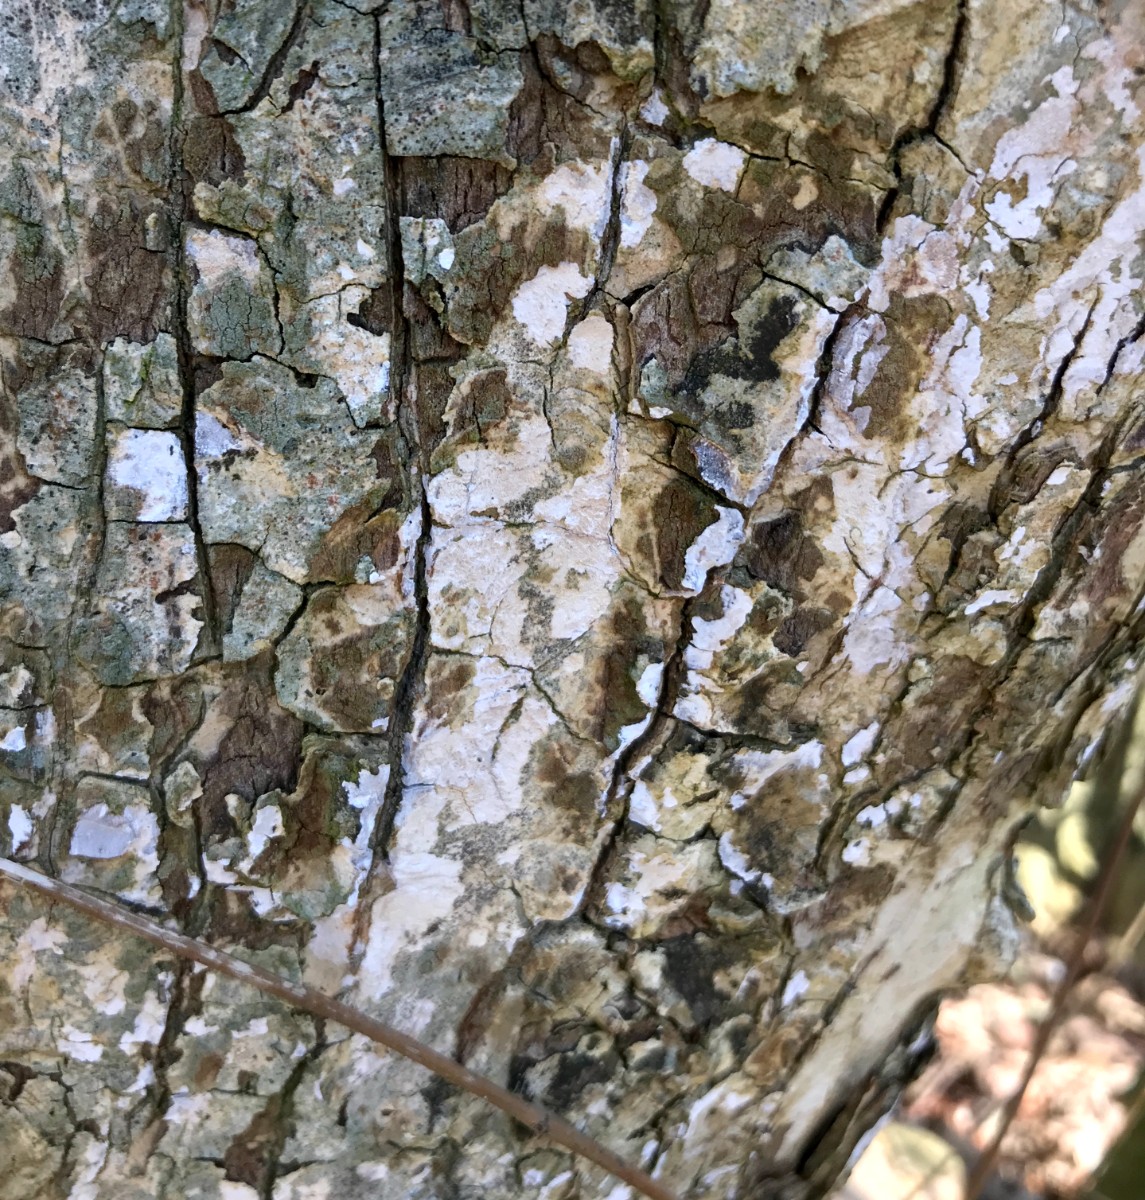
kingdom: Fungi
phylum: Basidiomycota
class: Agaricomycetes
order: Agaricales
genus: Dendrothele
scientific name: Dendrothele acerina
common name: navr-kalkplet
